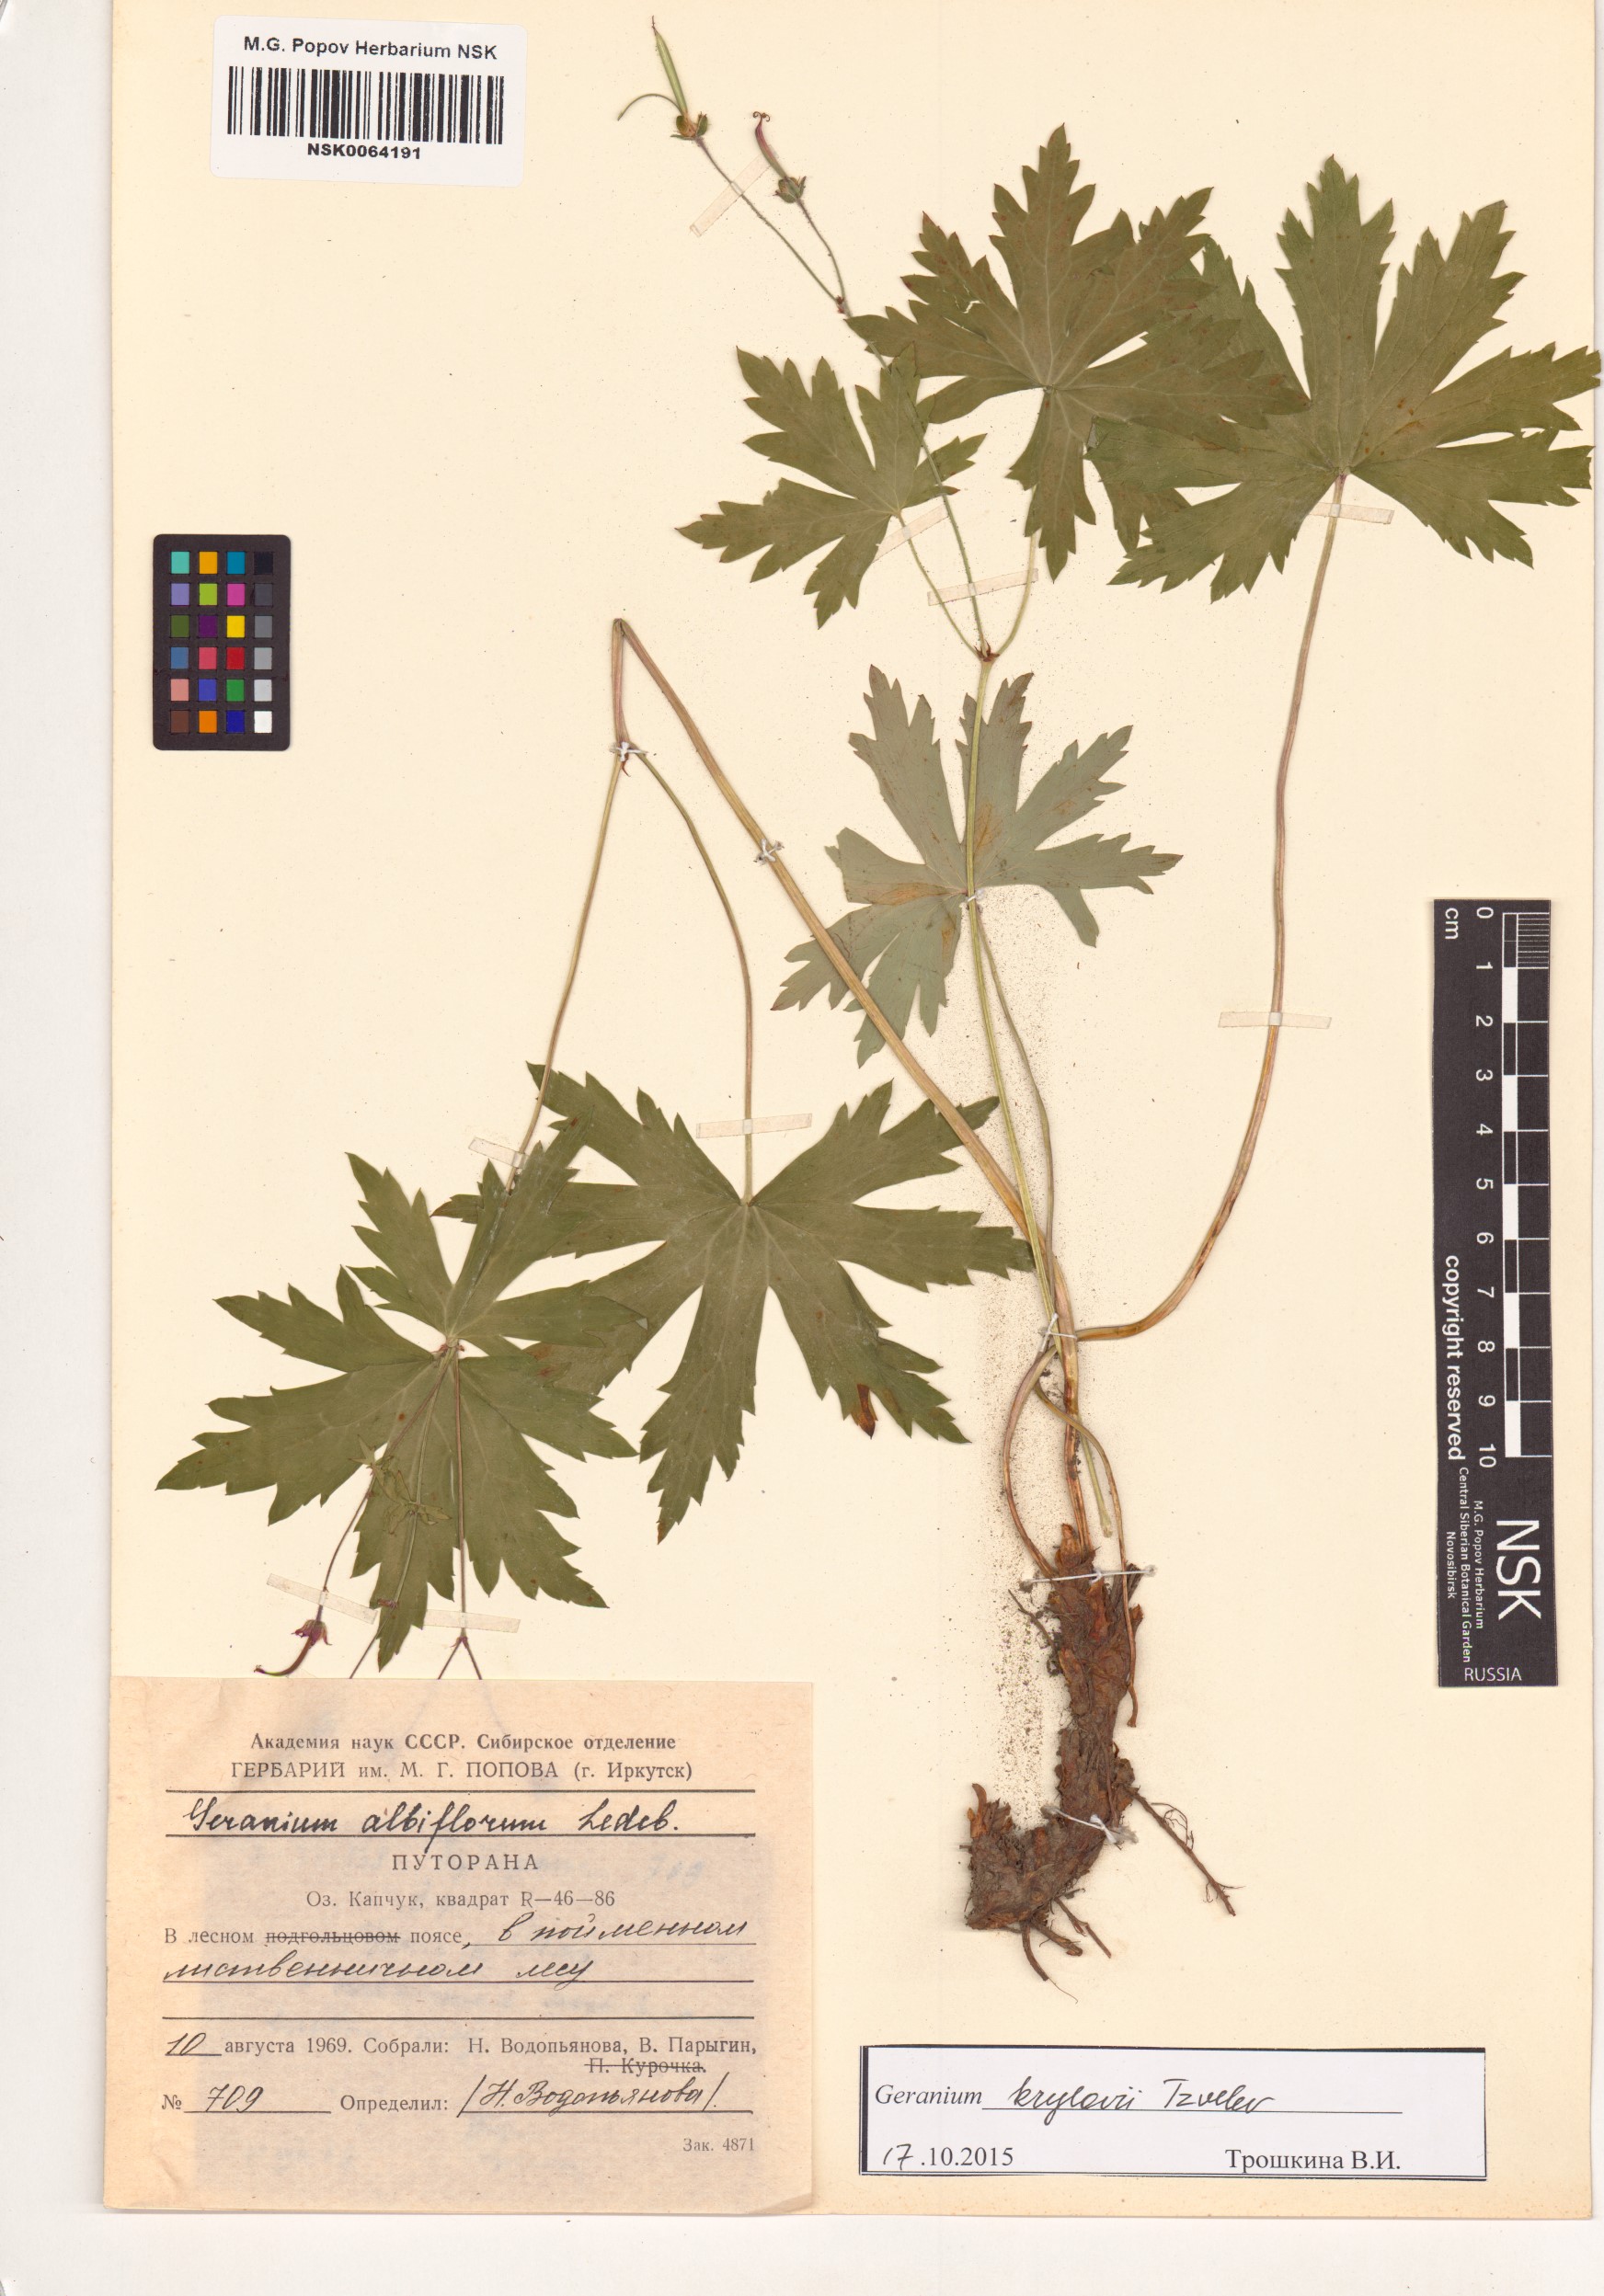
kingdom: Plantae
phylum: Tracheophyta
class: Magnoliopsida
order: Geraniales
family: Geraniaceae
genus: Geranium
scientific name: Geranium sylvaticum
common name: Wood crane's-bill
